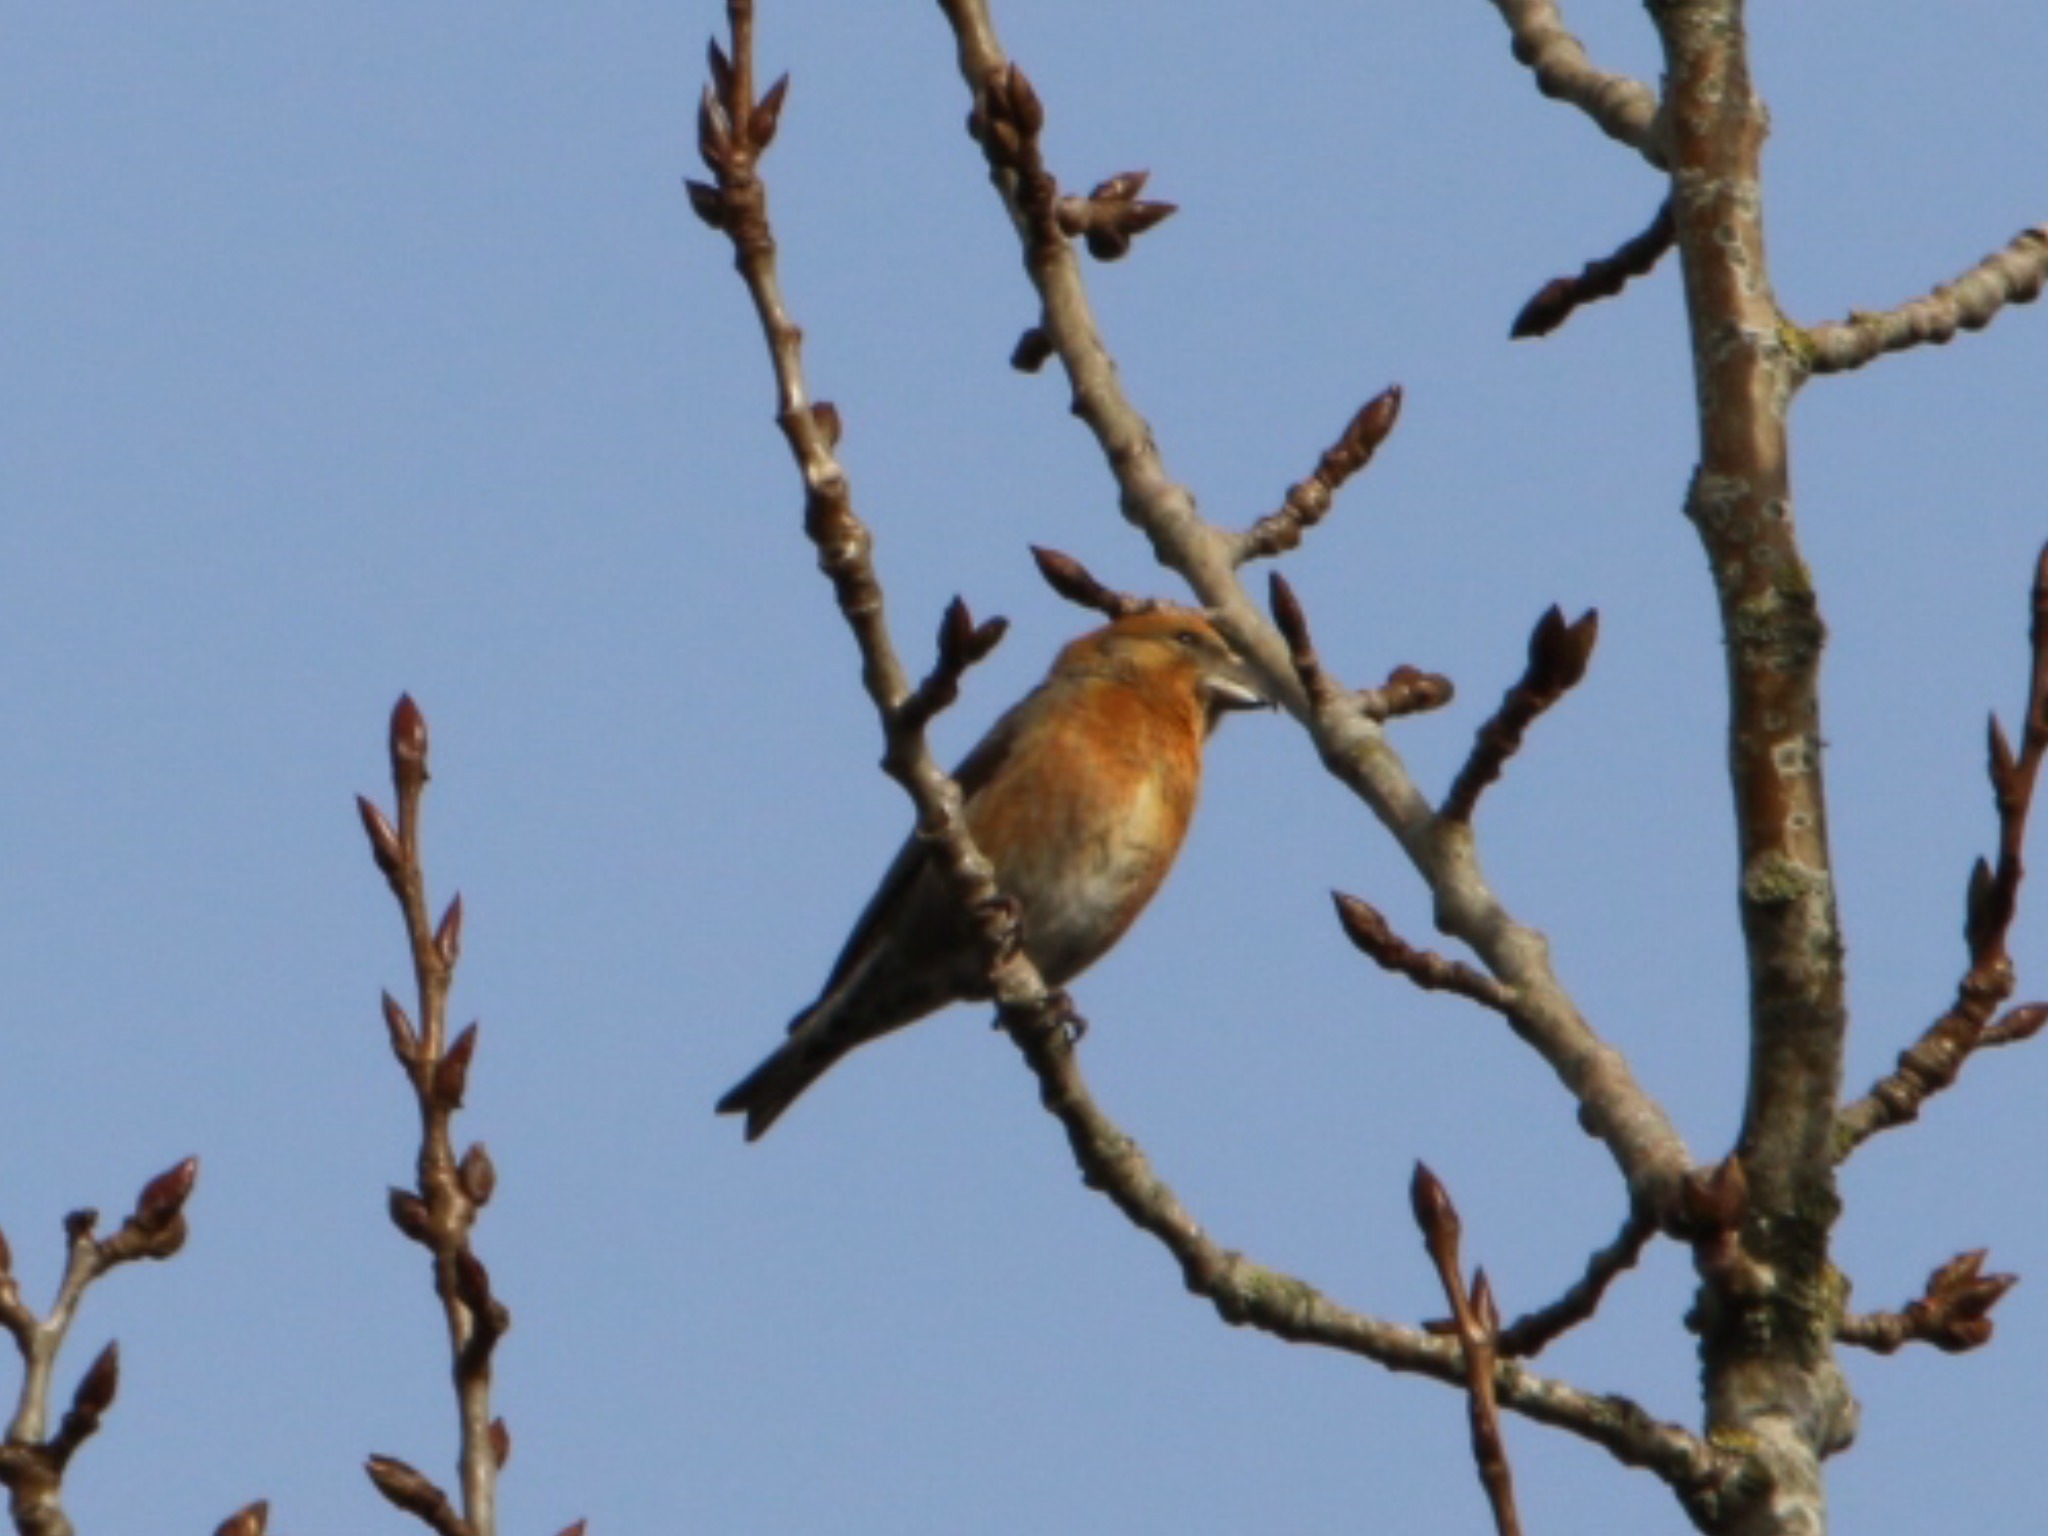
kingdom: Animalia
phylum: Chordata
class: Aves
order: Passeriformes
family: Fringillidae
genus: Loxia
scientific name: Loxia curvirostra
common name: Lille korsnæb
